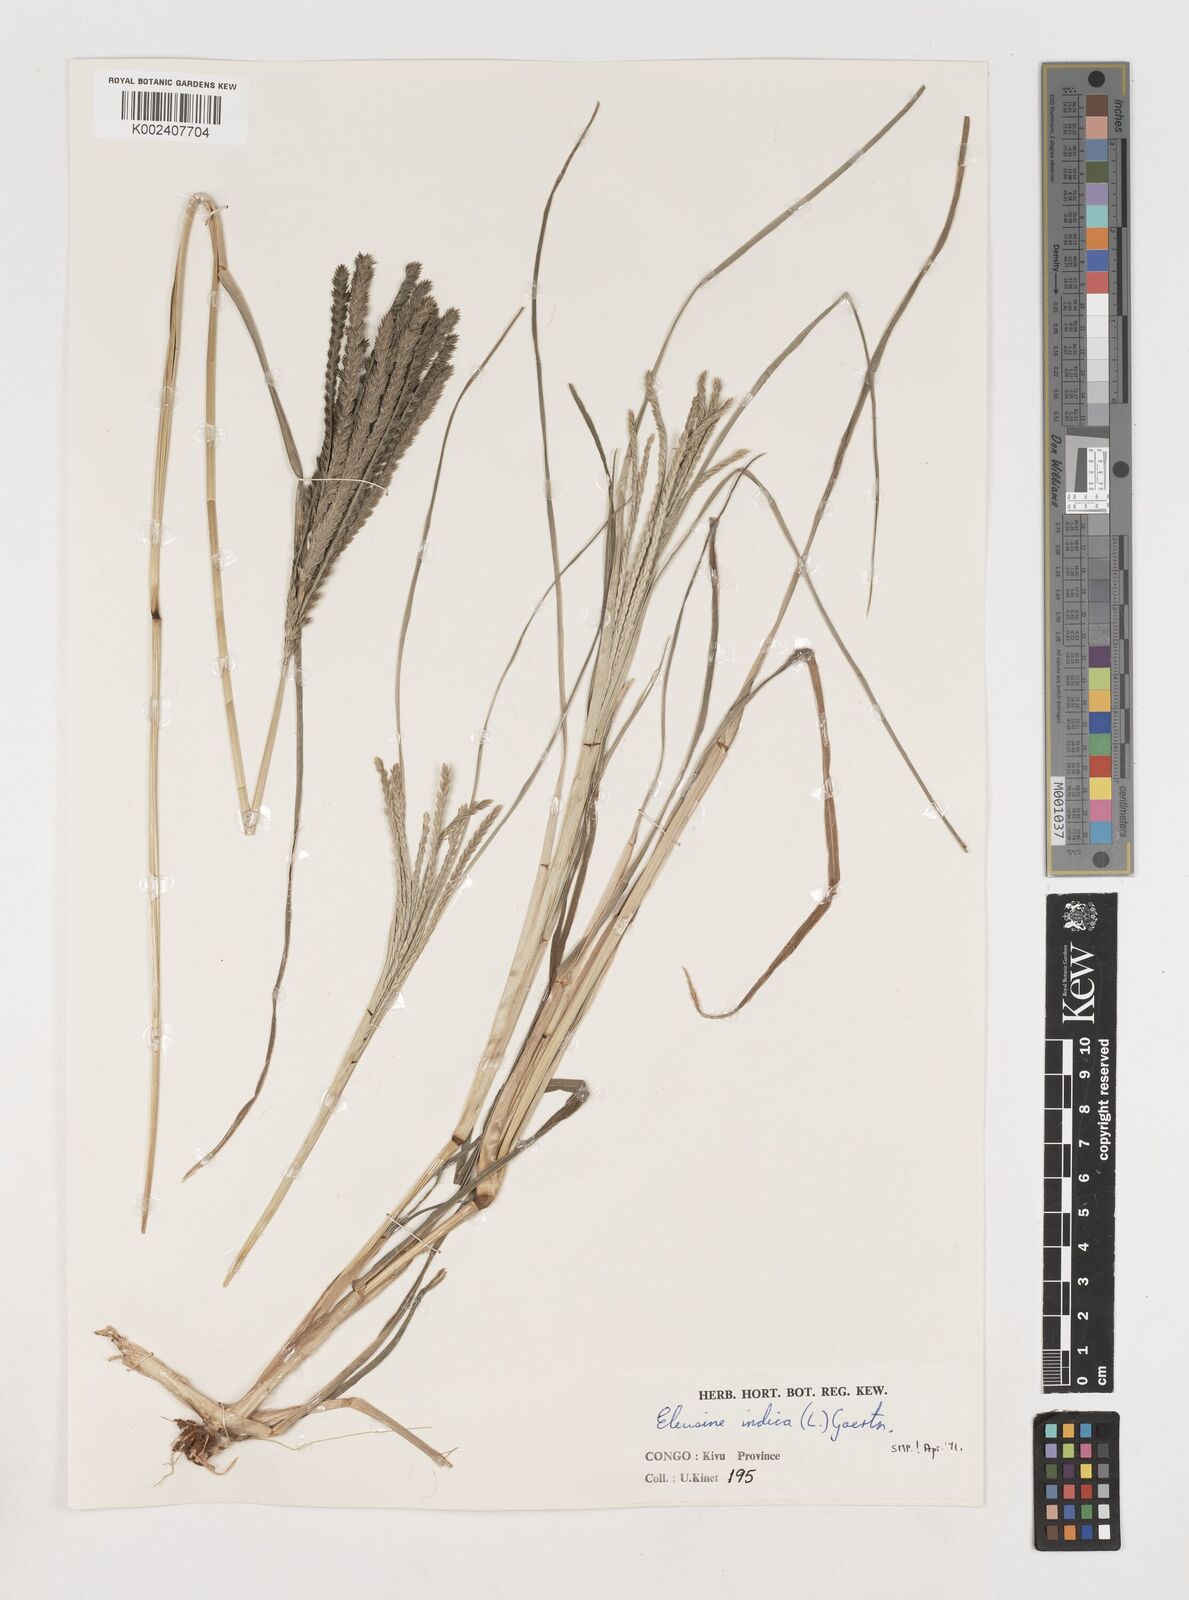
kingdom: Plantae
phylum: Tracheophyta
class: Liliopsida
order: Poales
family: Poaceae
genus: Eleusine
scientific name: Eleusine indica
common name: Yard-grass
